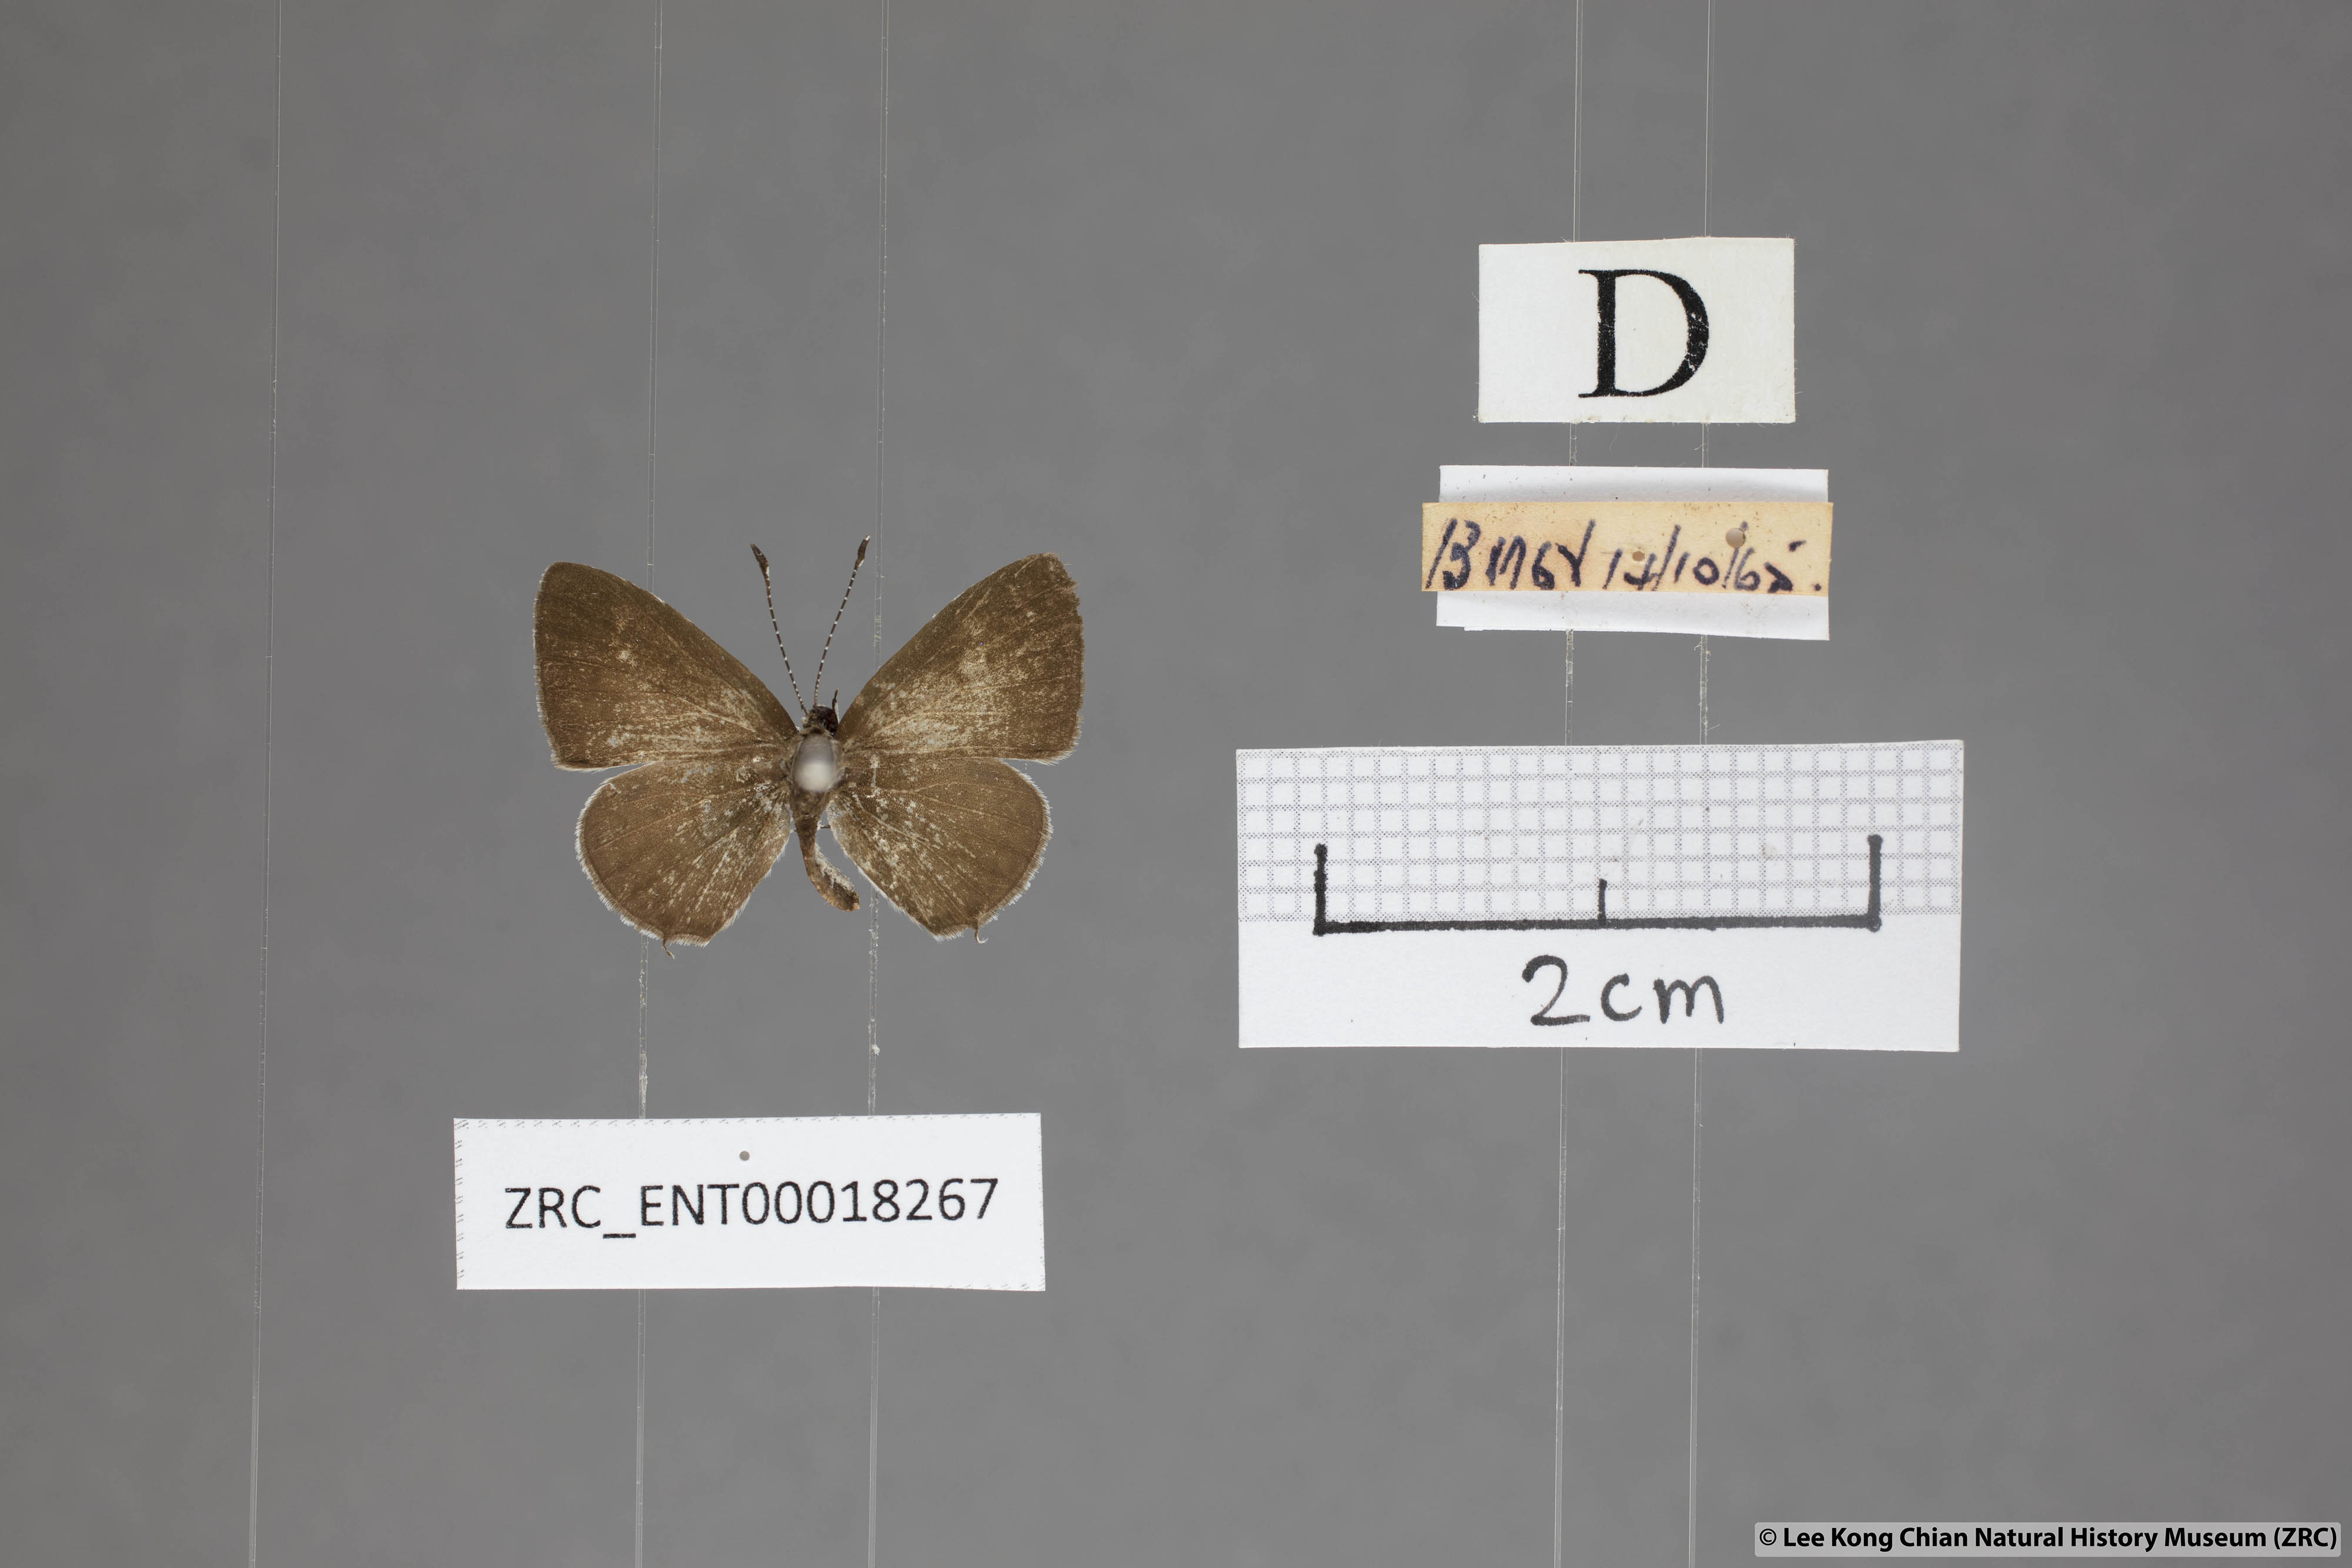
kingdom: Animalia
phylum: Arthropoda
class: Insecta
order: Lepidoptera
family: Lycaenidae
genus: Megisba
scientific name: Megisba malaya
